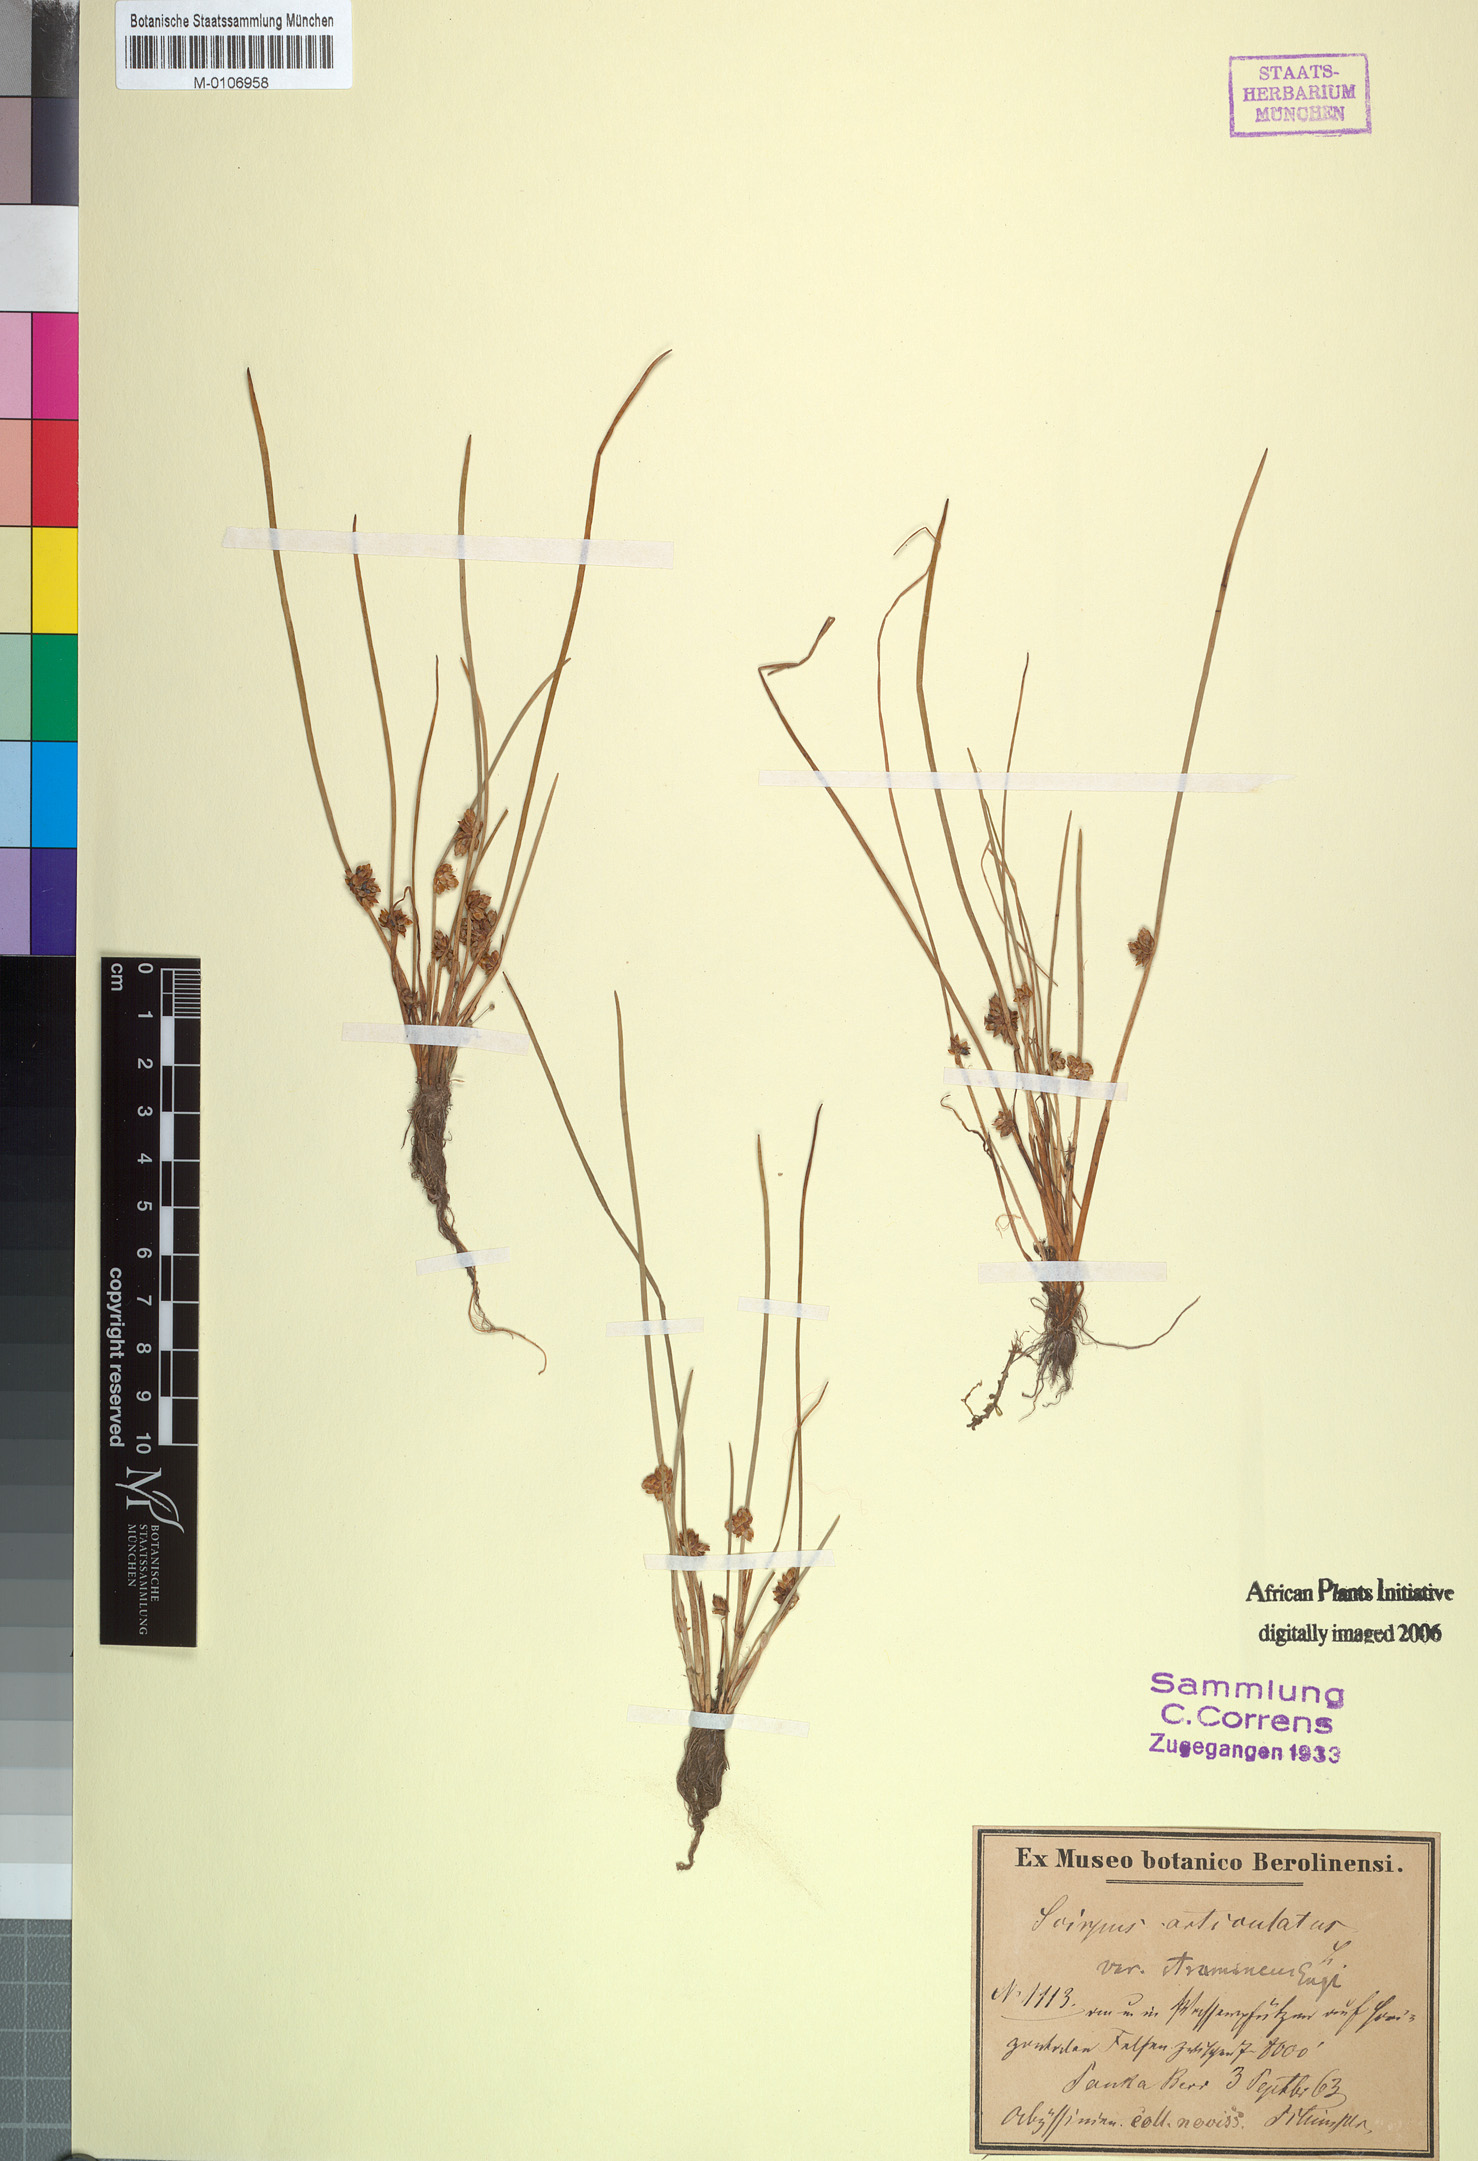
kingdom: Plantae
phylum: Tracheophyta
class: Liliopsida
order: Poales
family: Cyperaceae
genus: Schoenoplectiella
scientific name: Schoenoplectiella praelongata
